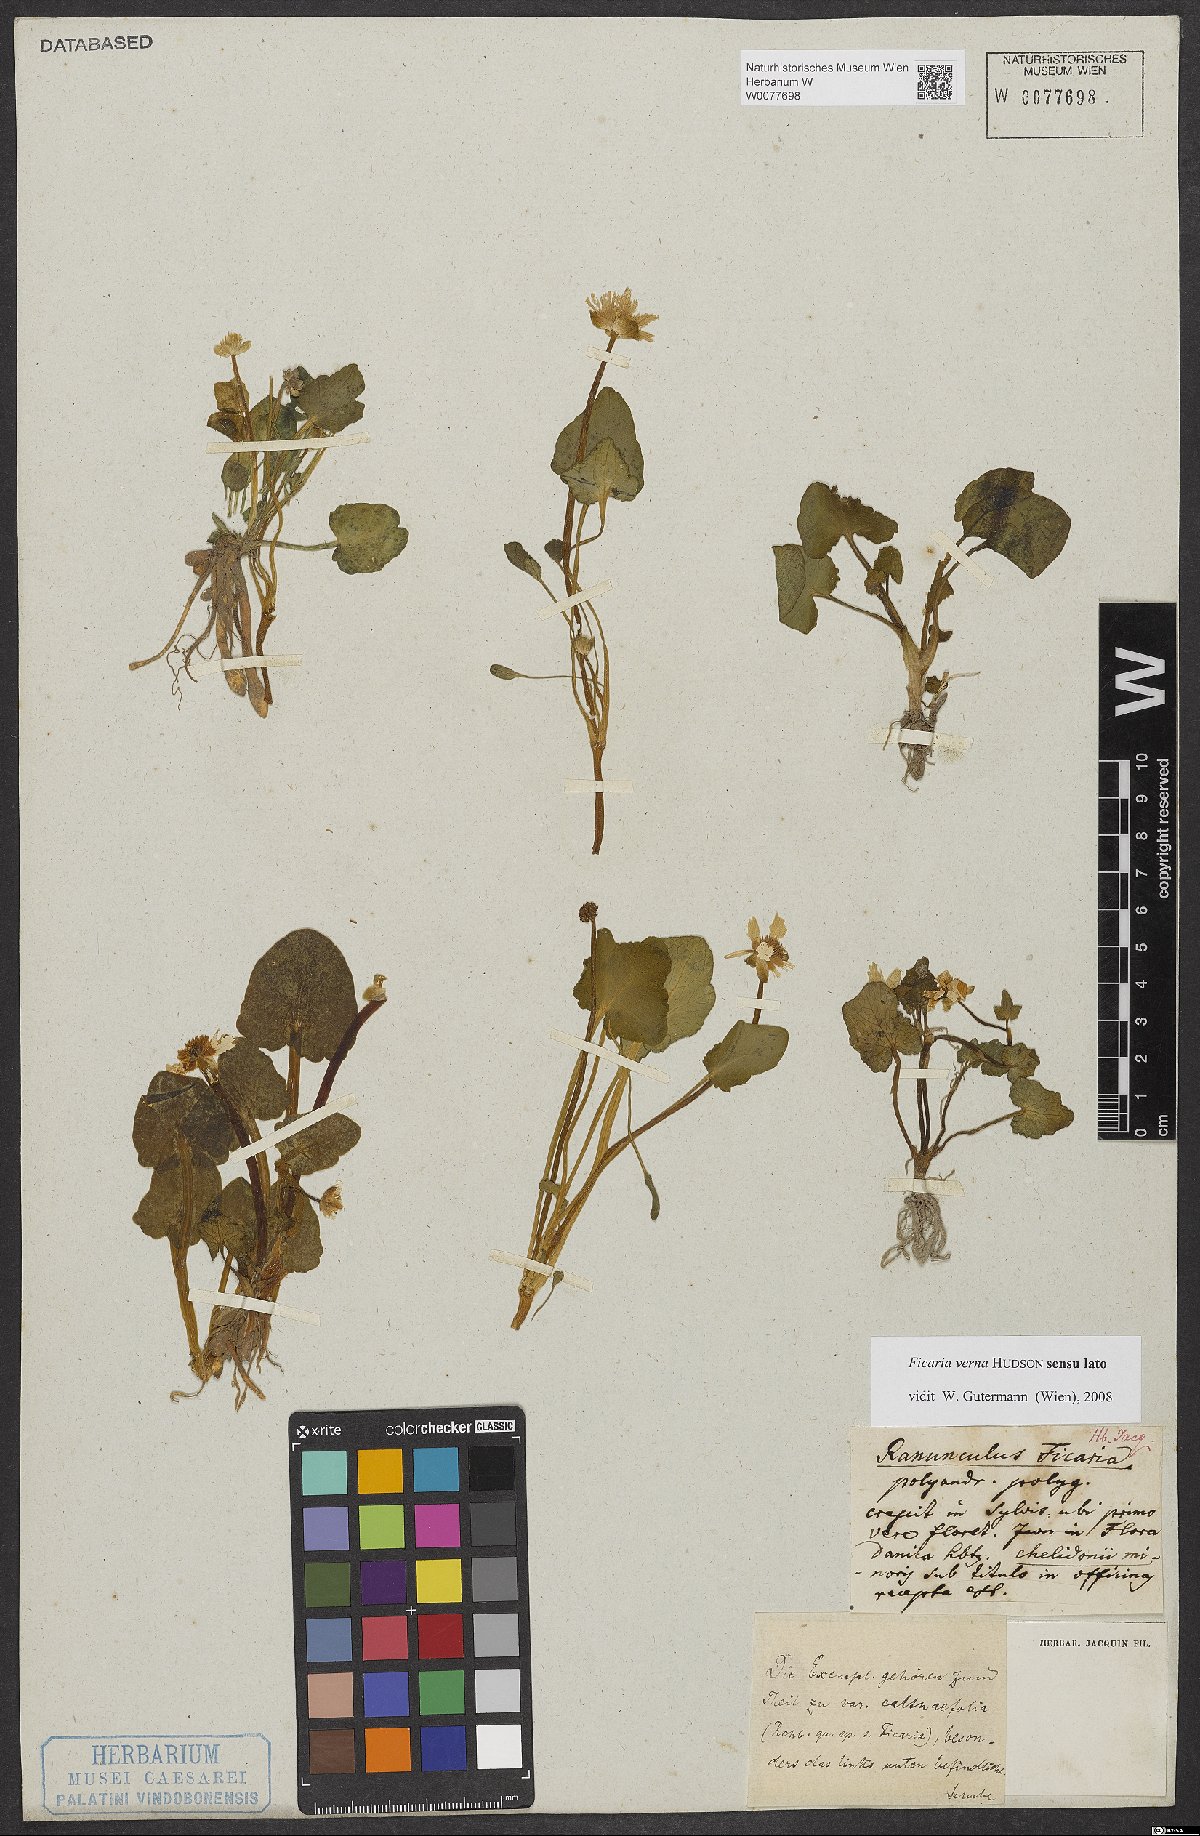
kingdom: Plantae
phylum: Tracheophyta
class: Magnoliopsida
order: Ranunculales
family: Ranunculaceae
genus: Ficaria
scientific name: Ficaria verna
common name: Lesser celandine
